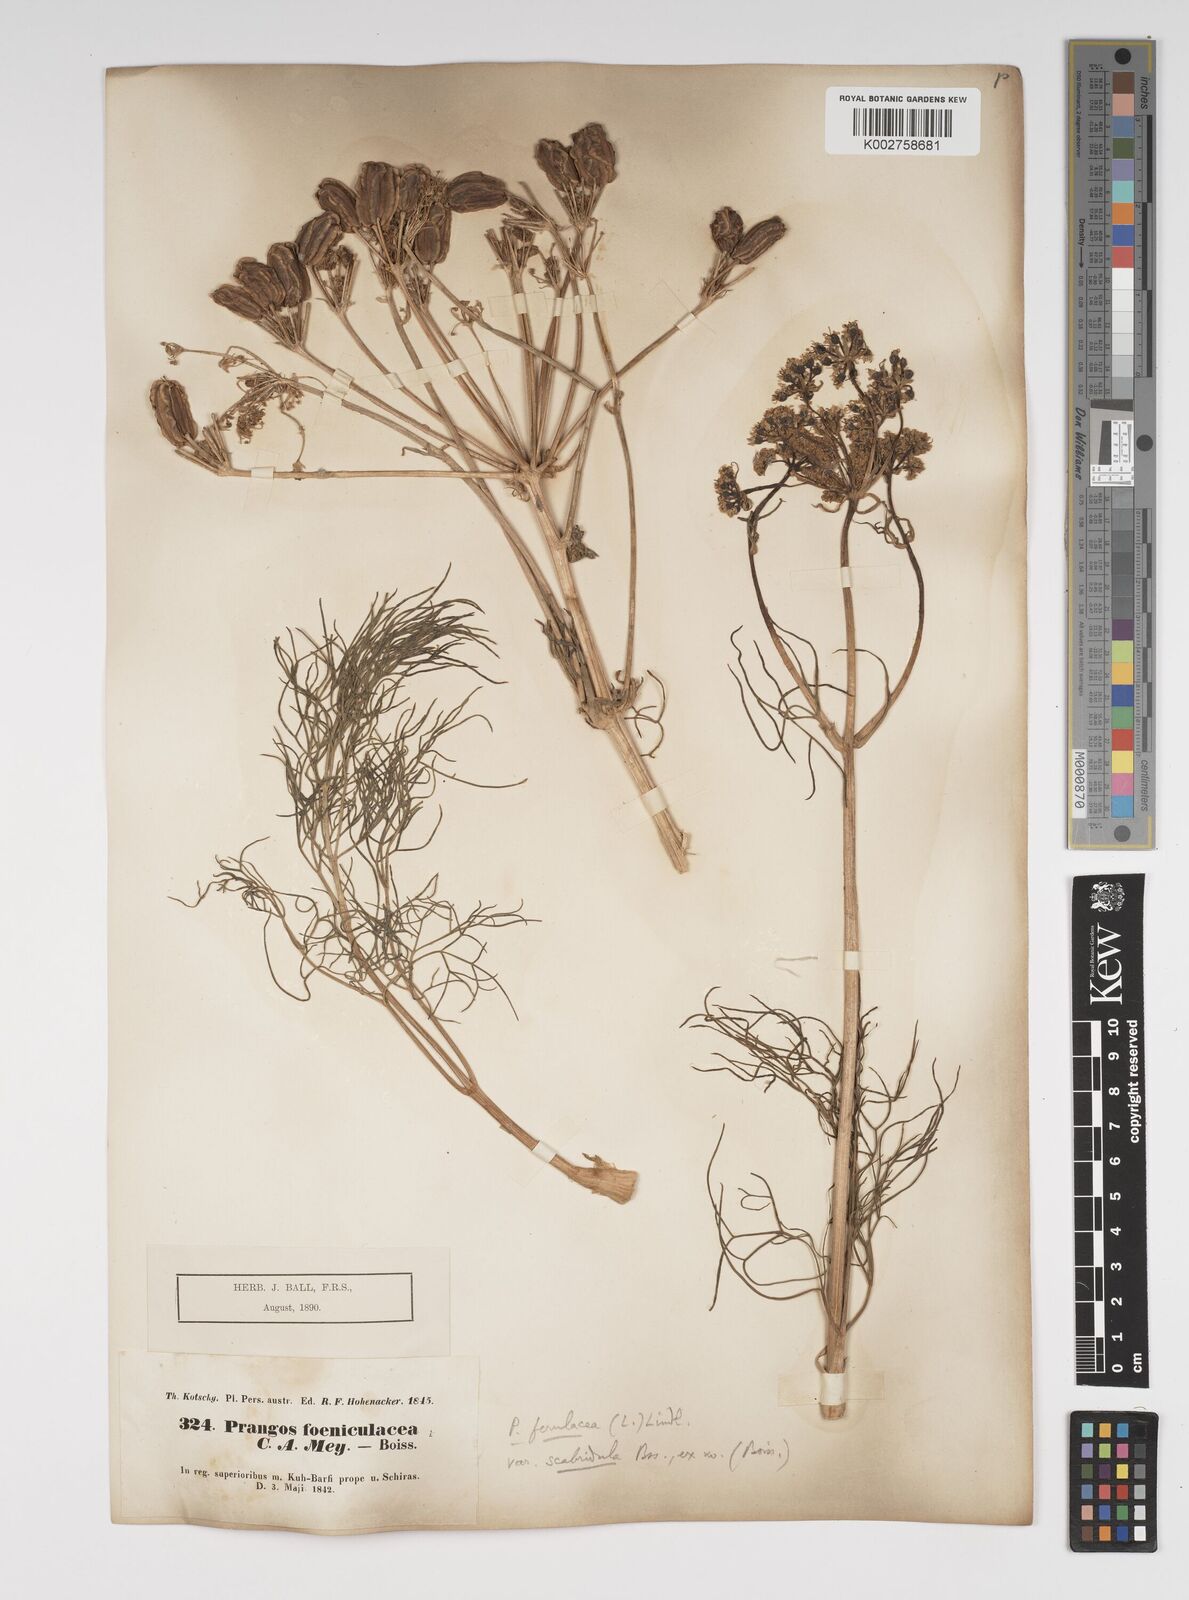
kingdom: Plantae
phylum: Tracheophyta
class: Magnoliopsida
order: Apiales
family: Apiaceae
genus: Prangos
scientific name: Prangos ferulacea
